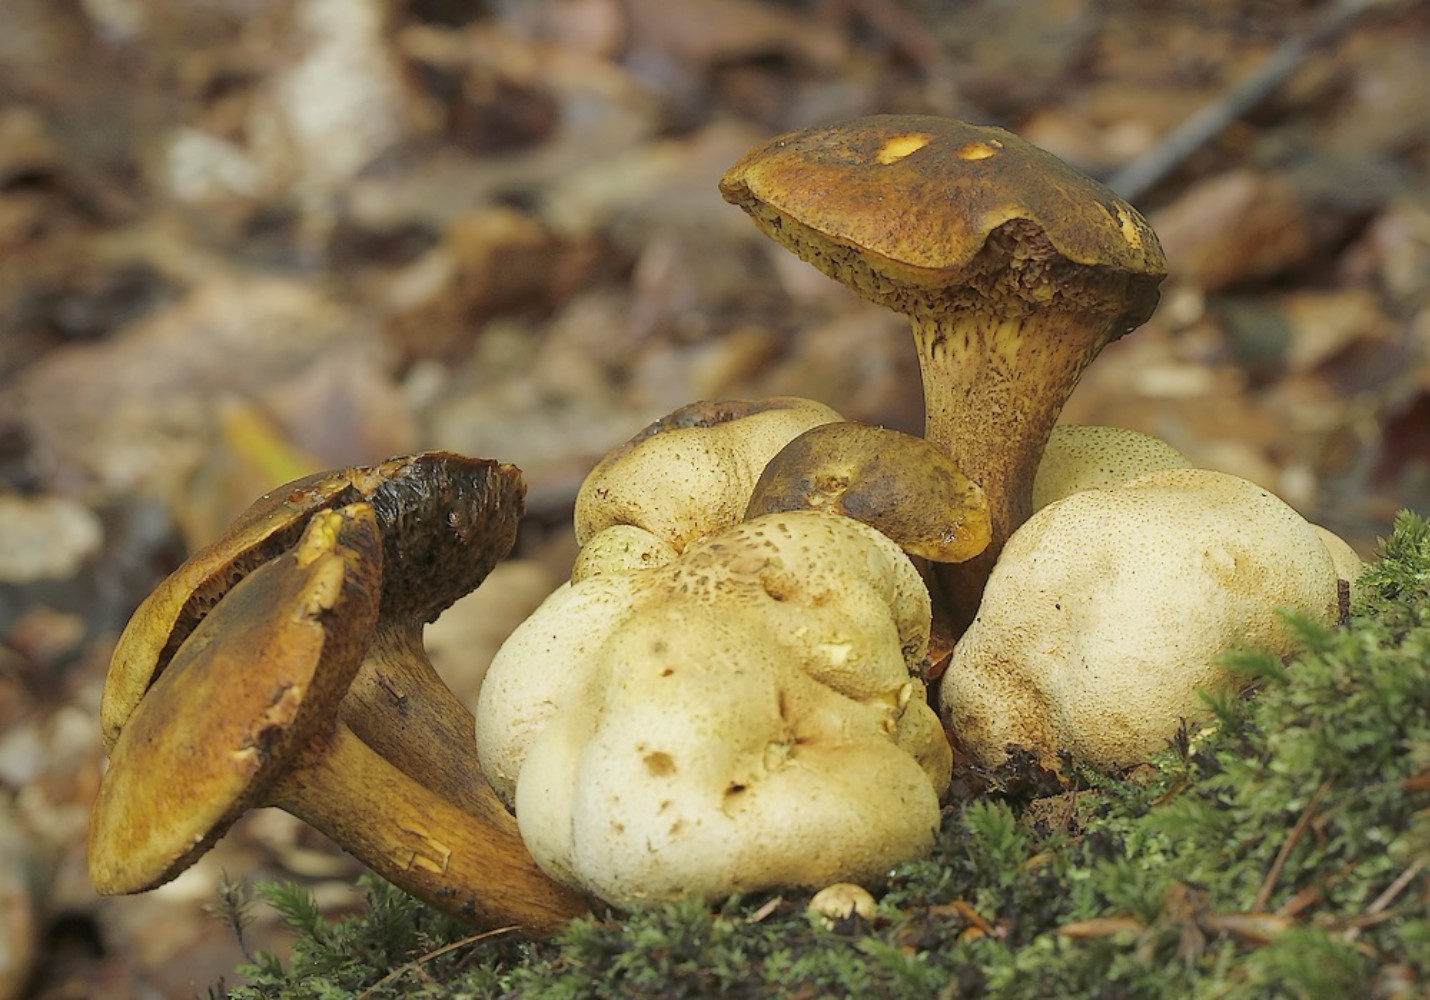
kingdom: Fungi
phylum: Basidiomycota
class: Agaricomycetes
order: Boletales
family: Boletaceae
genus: Pseudoboletus
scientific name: Pseudoboletus parasiticus
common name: snyltende rørhat
